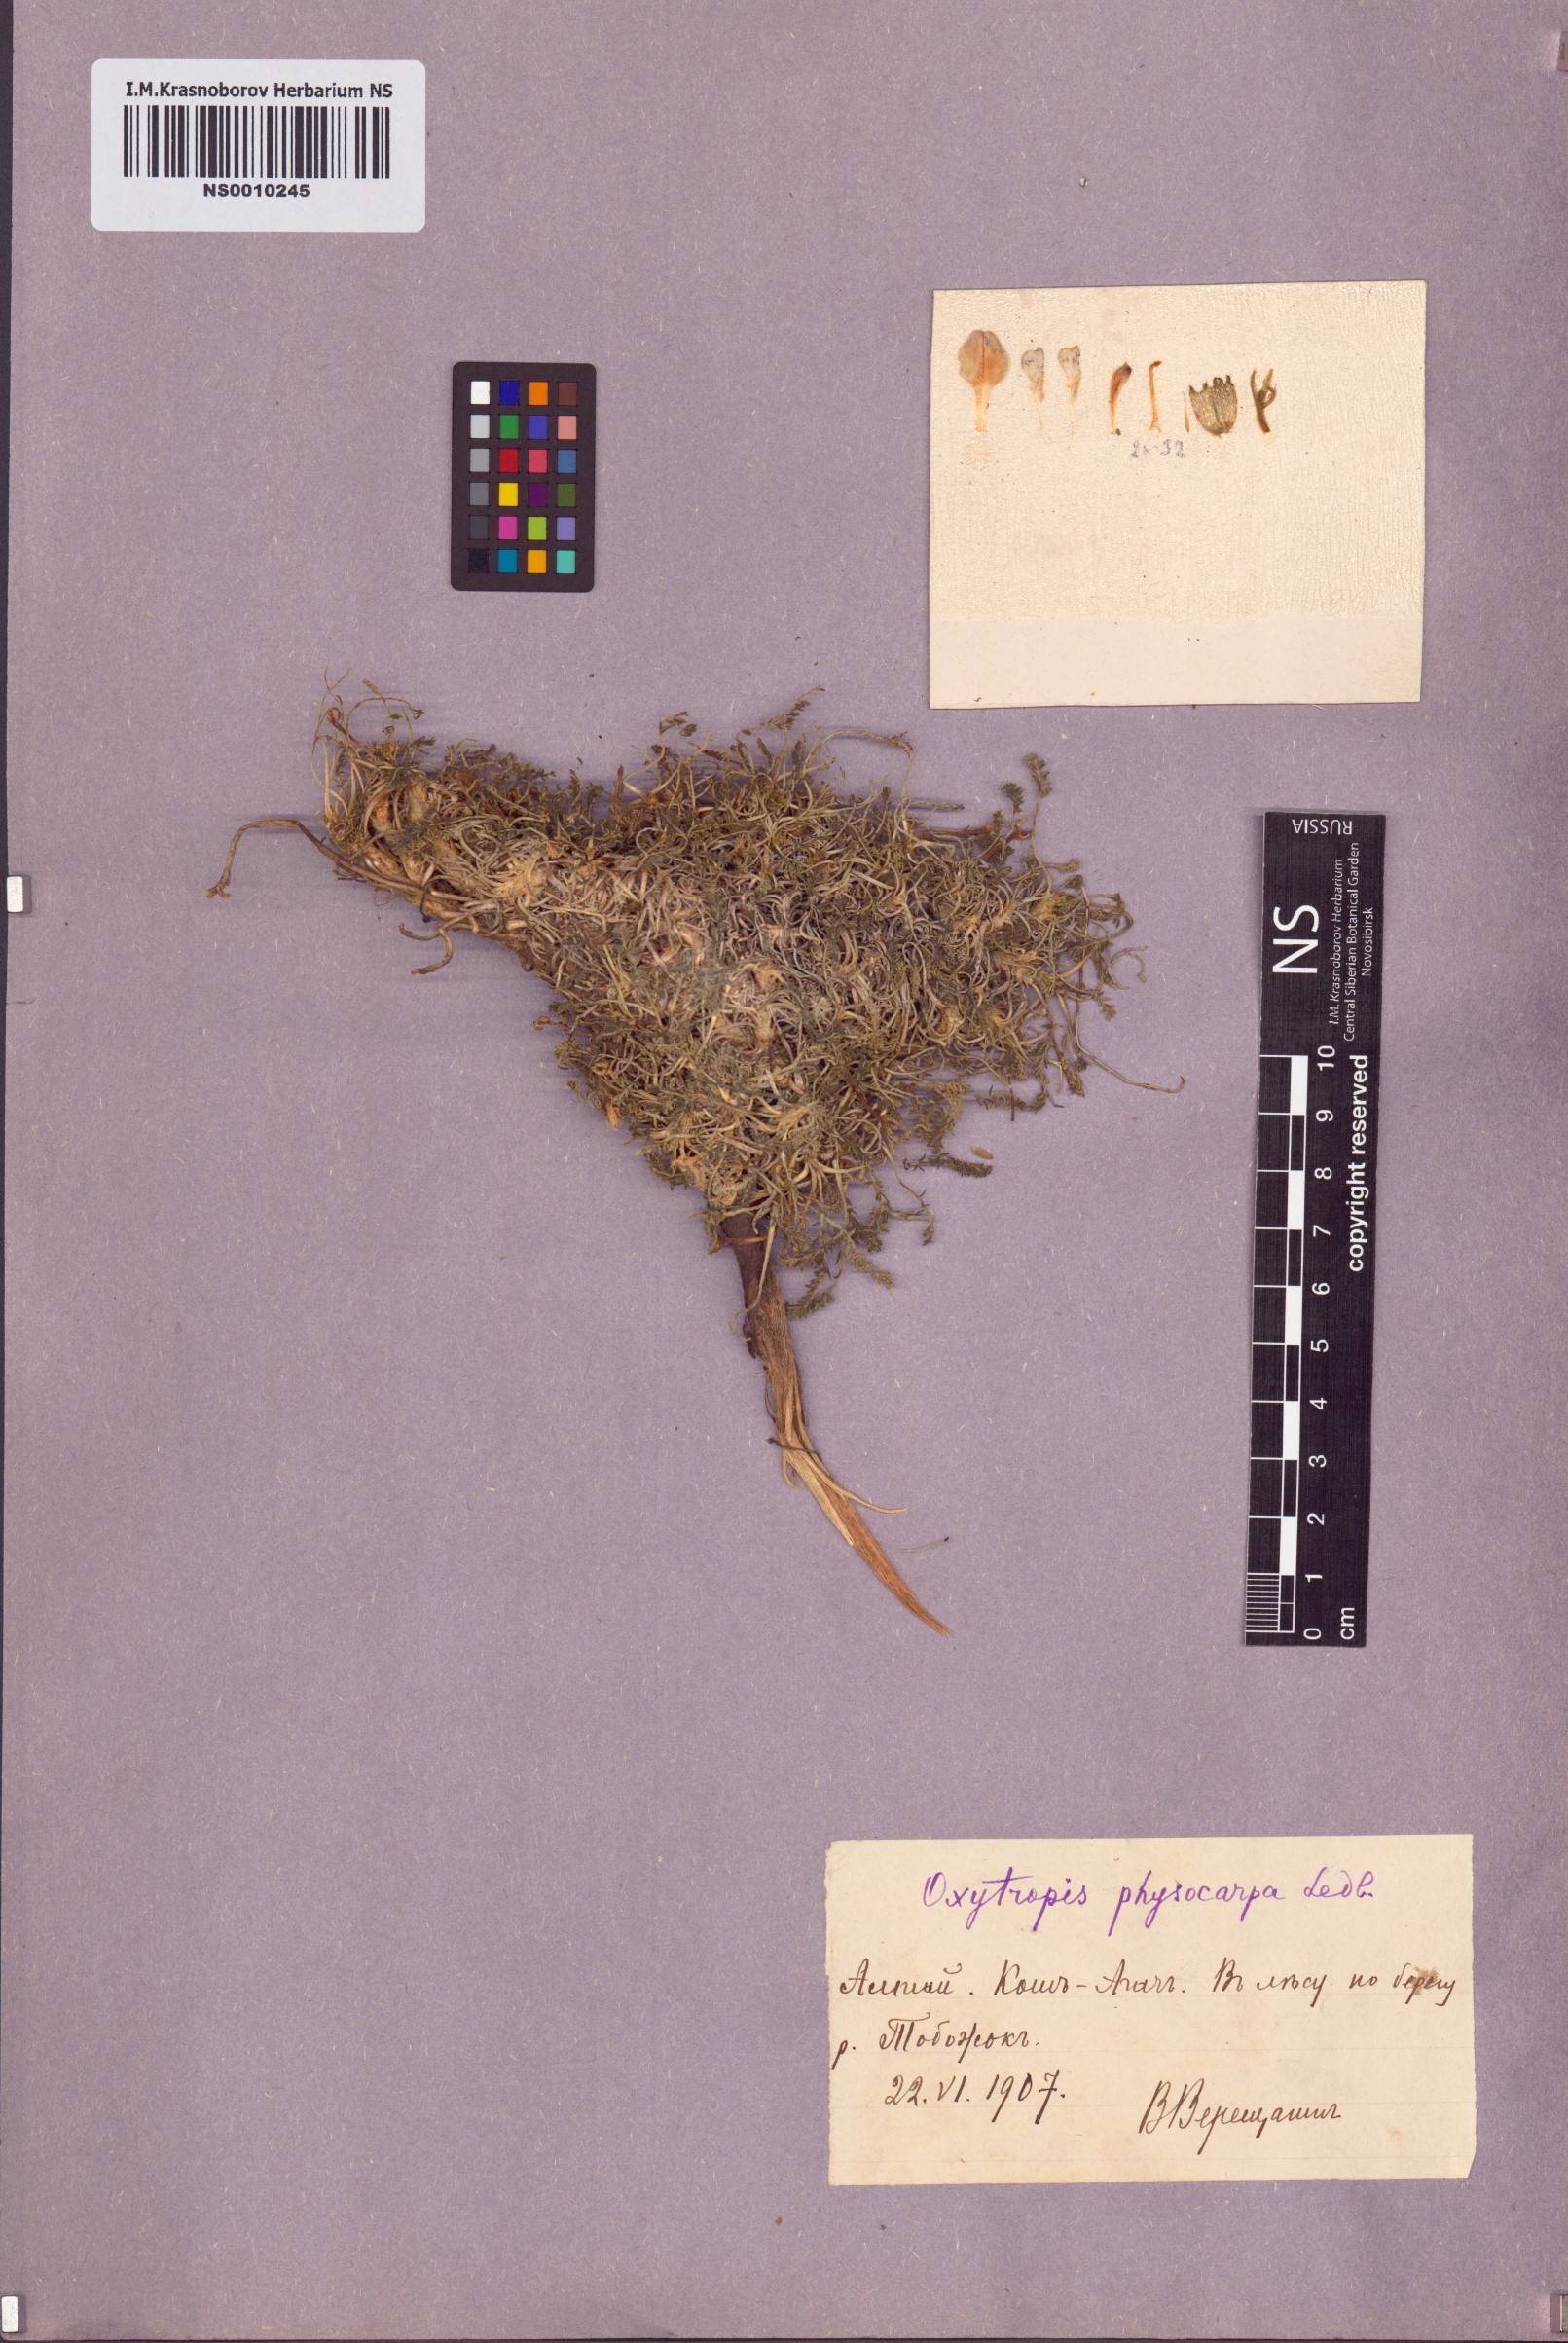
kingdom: Plantae
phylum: Tracheophyta
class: Magnoliopsida
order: Fabales
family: Fabaceae
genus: Oxytropis
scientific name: Oxytropis physocarpa
